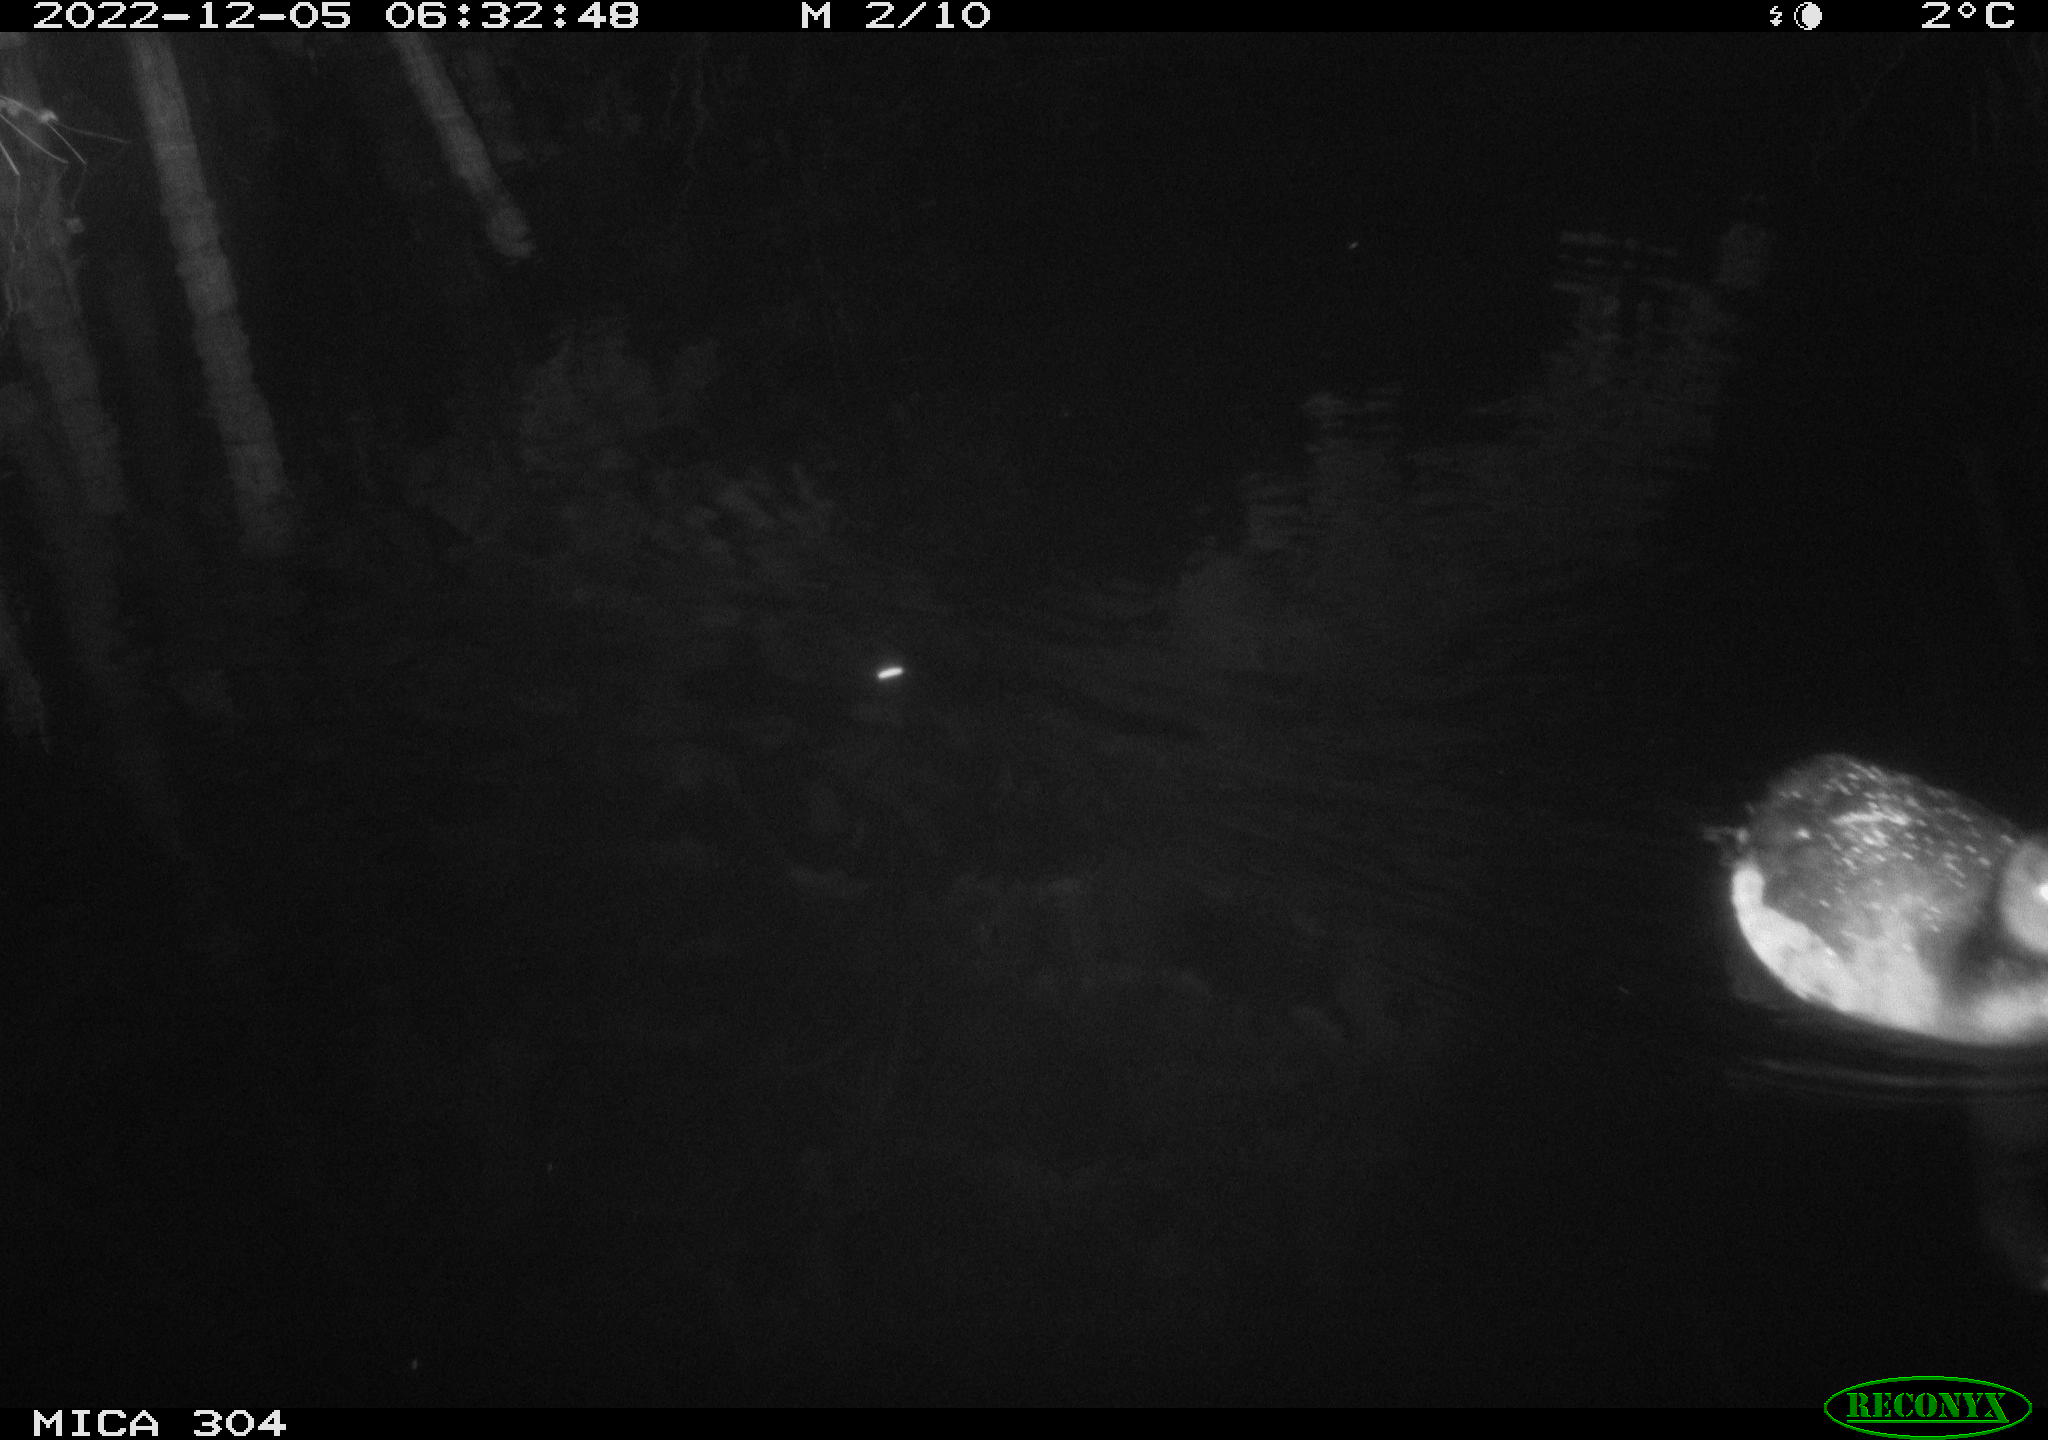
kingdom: Animalia
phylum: Chordata
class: Aves
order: Anseriformes
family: Anatidae
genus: Anas
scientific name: Anas
